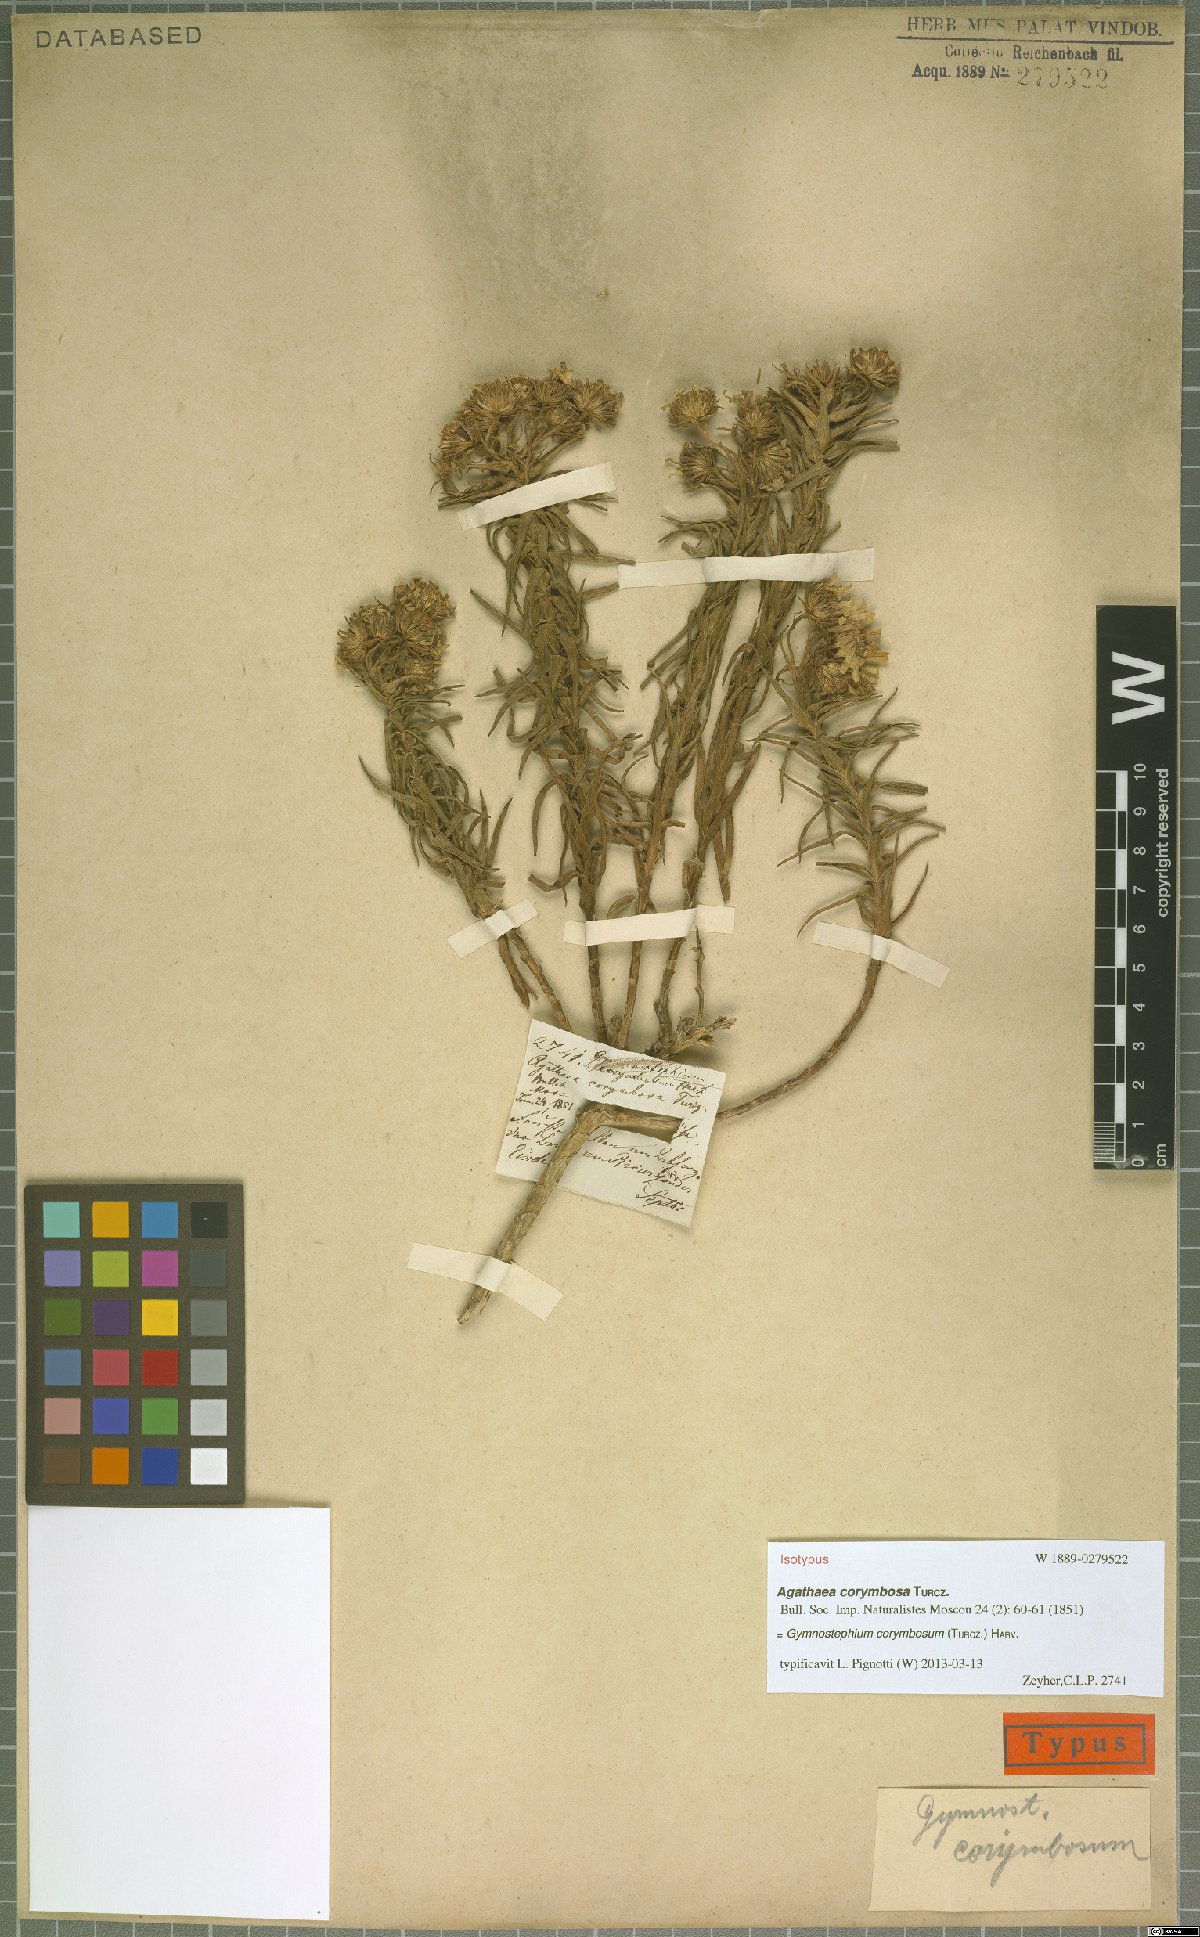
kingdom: Plantae
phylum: Tracheophyta
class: Magnoliopsida
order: Asterales
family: Asteraceae
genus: Zyrphelis
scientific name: Zyrphelis nervosa
